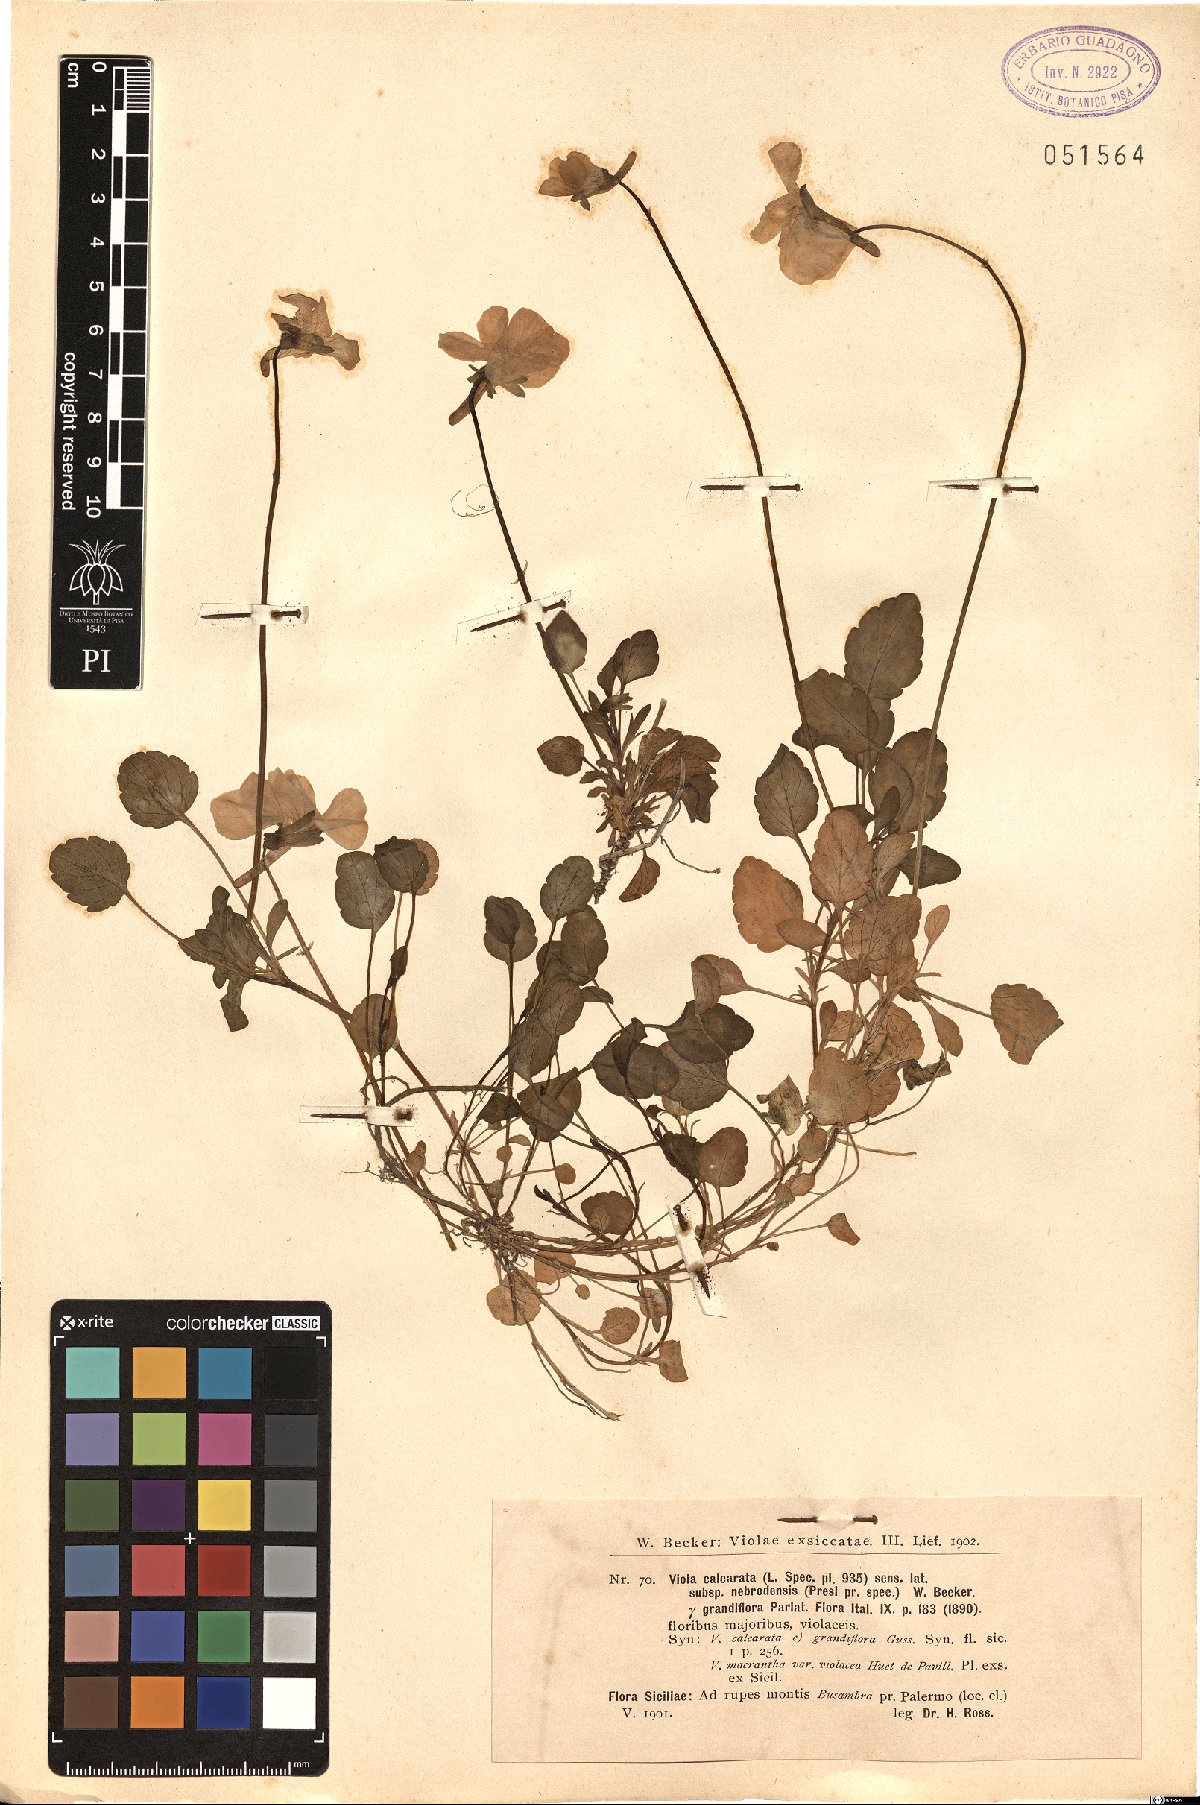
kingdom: Plantae
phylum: Tracheophyta
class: Magnoliopsida
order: Malpighiales
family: Violaceae
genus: Viola
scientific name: Viola calcarata
